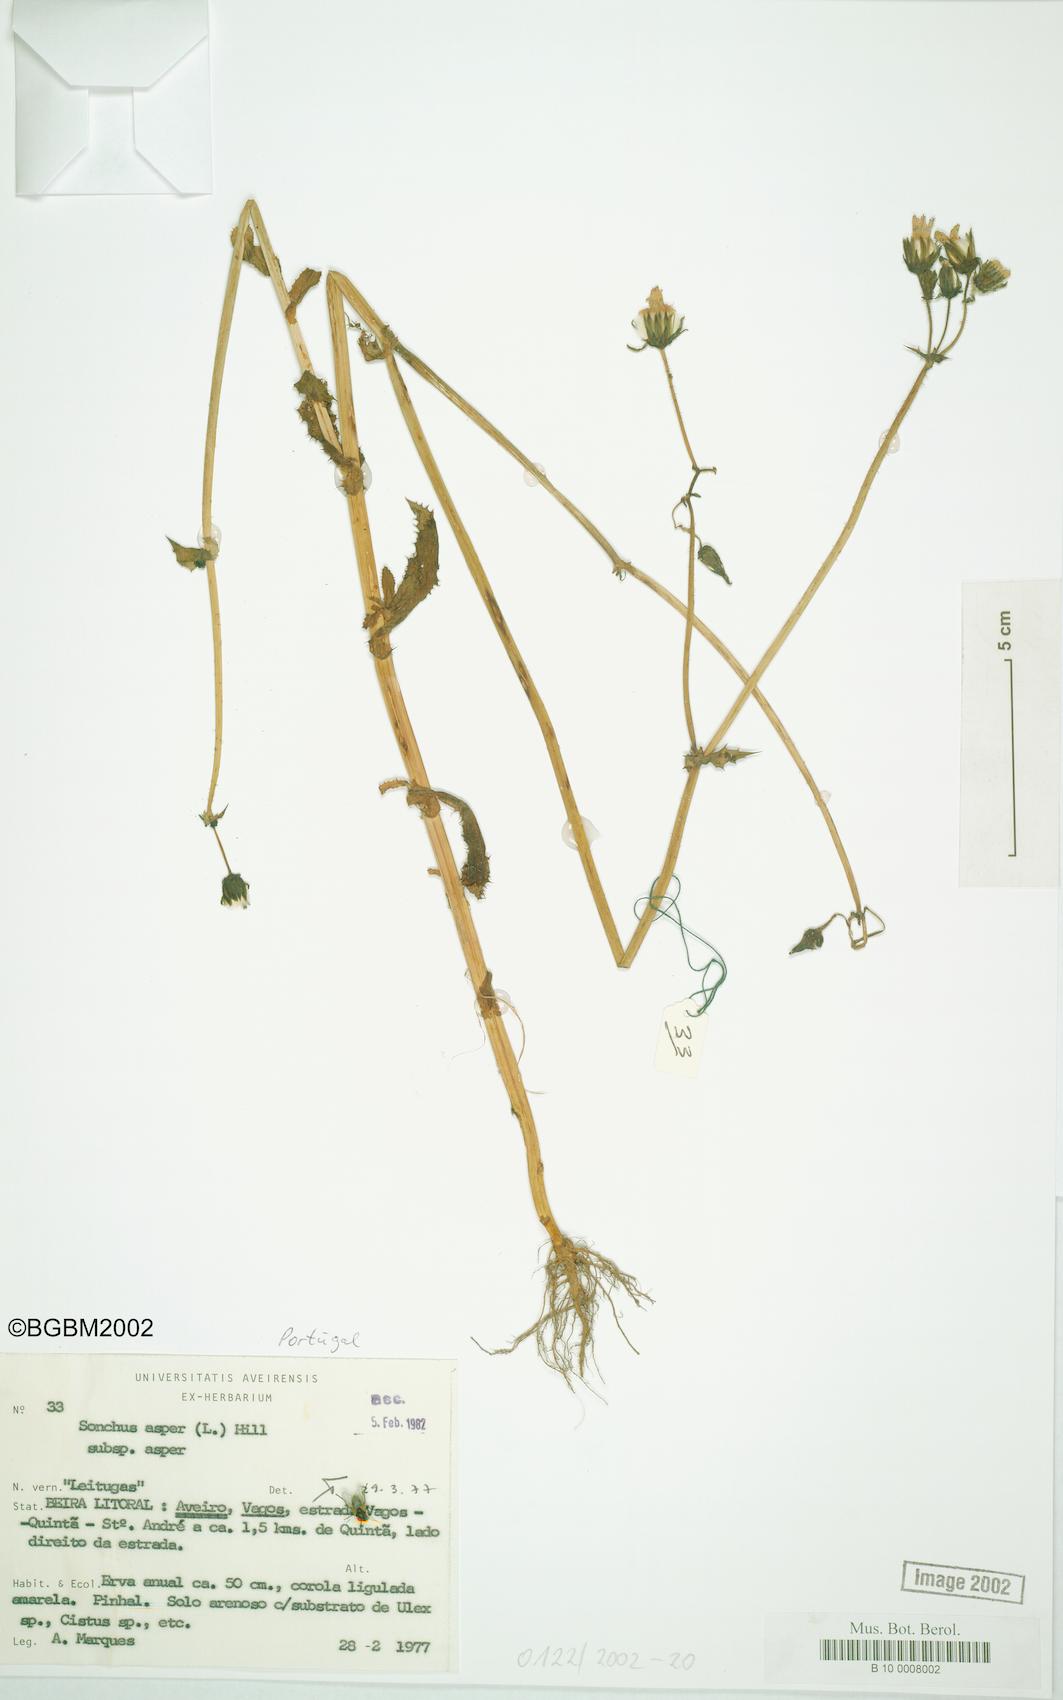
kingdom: Plantae
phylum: Tracheophyta
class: Magnoliopsida
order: Asterales
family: Asteraceae
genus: Sonchus
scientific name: Sonchus asper
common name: Prickly sow-thistle
